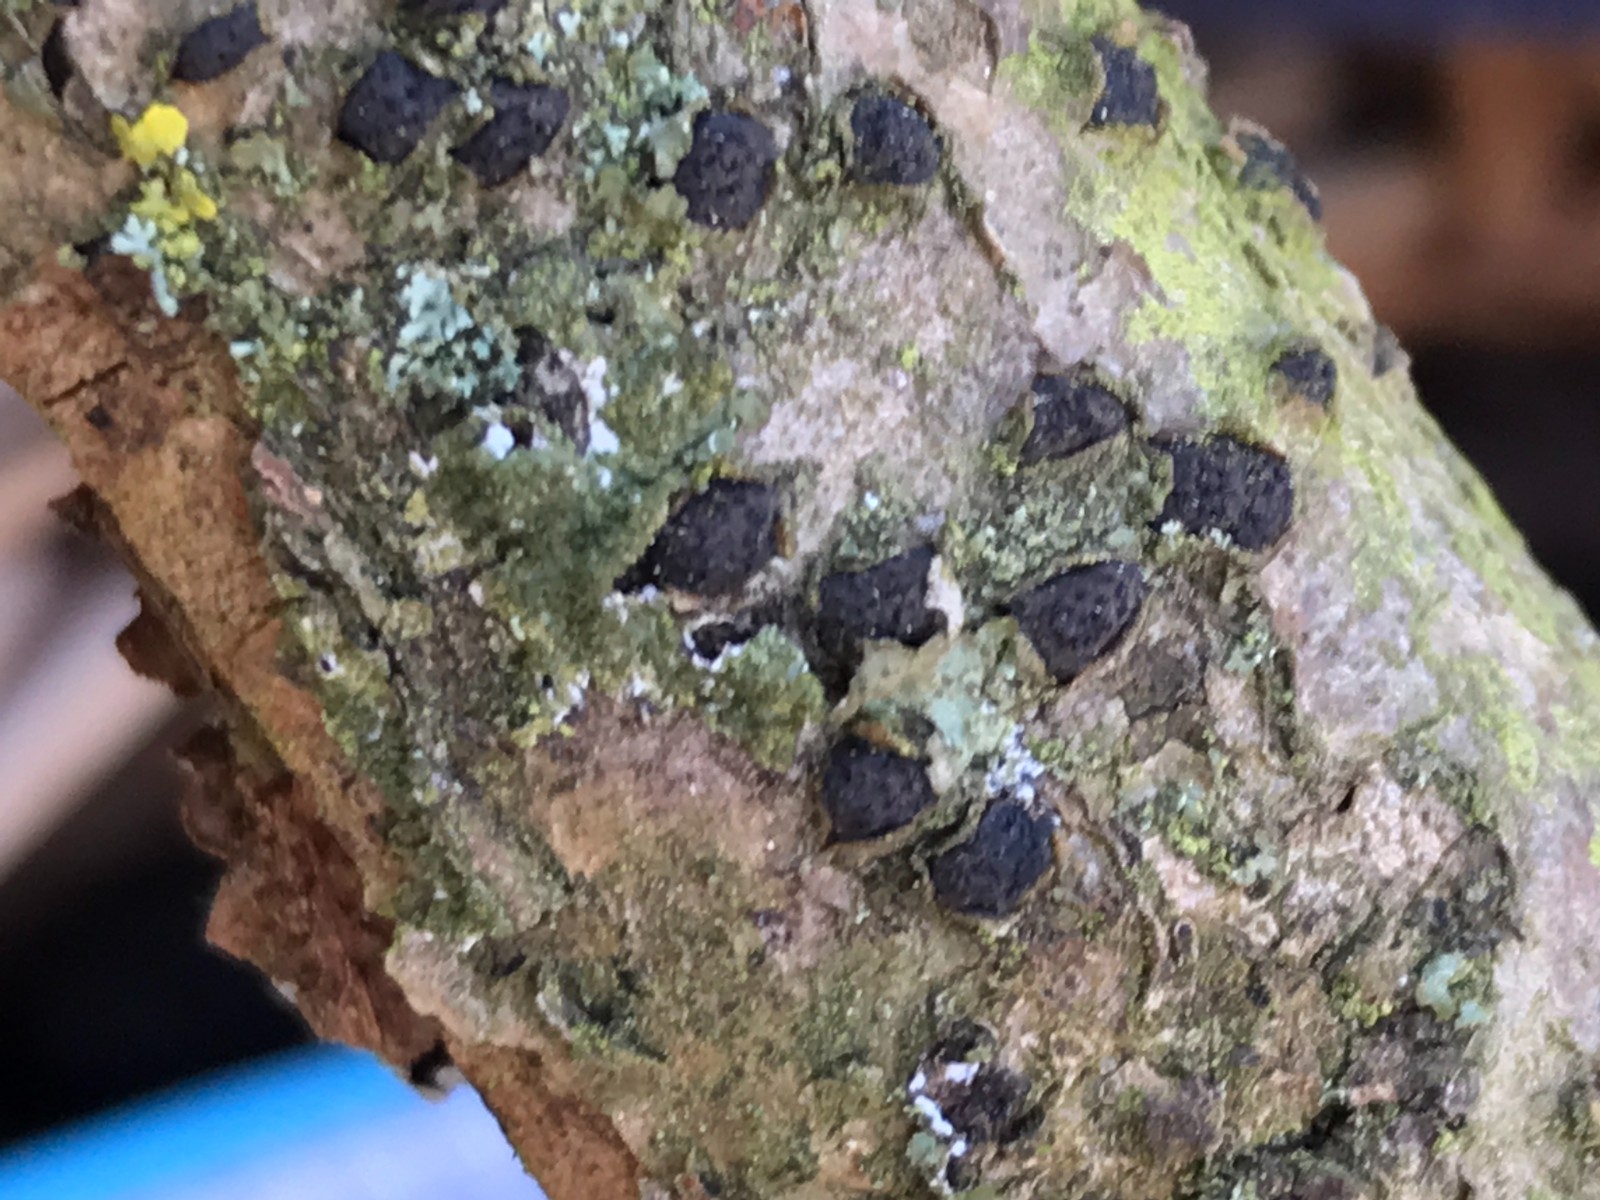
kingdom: Fungi
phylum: Ascomycota
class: Sordariomycetes
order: Xylariales
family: Diatrypaceae
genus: Diatrype
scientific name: Diatrype disciformis
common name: kant-kulskorpe
